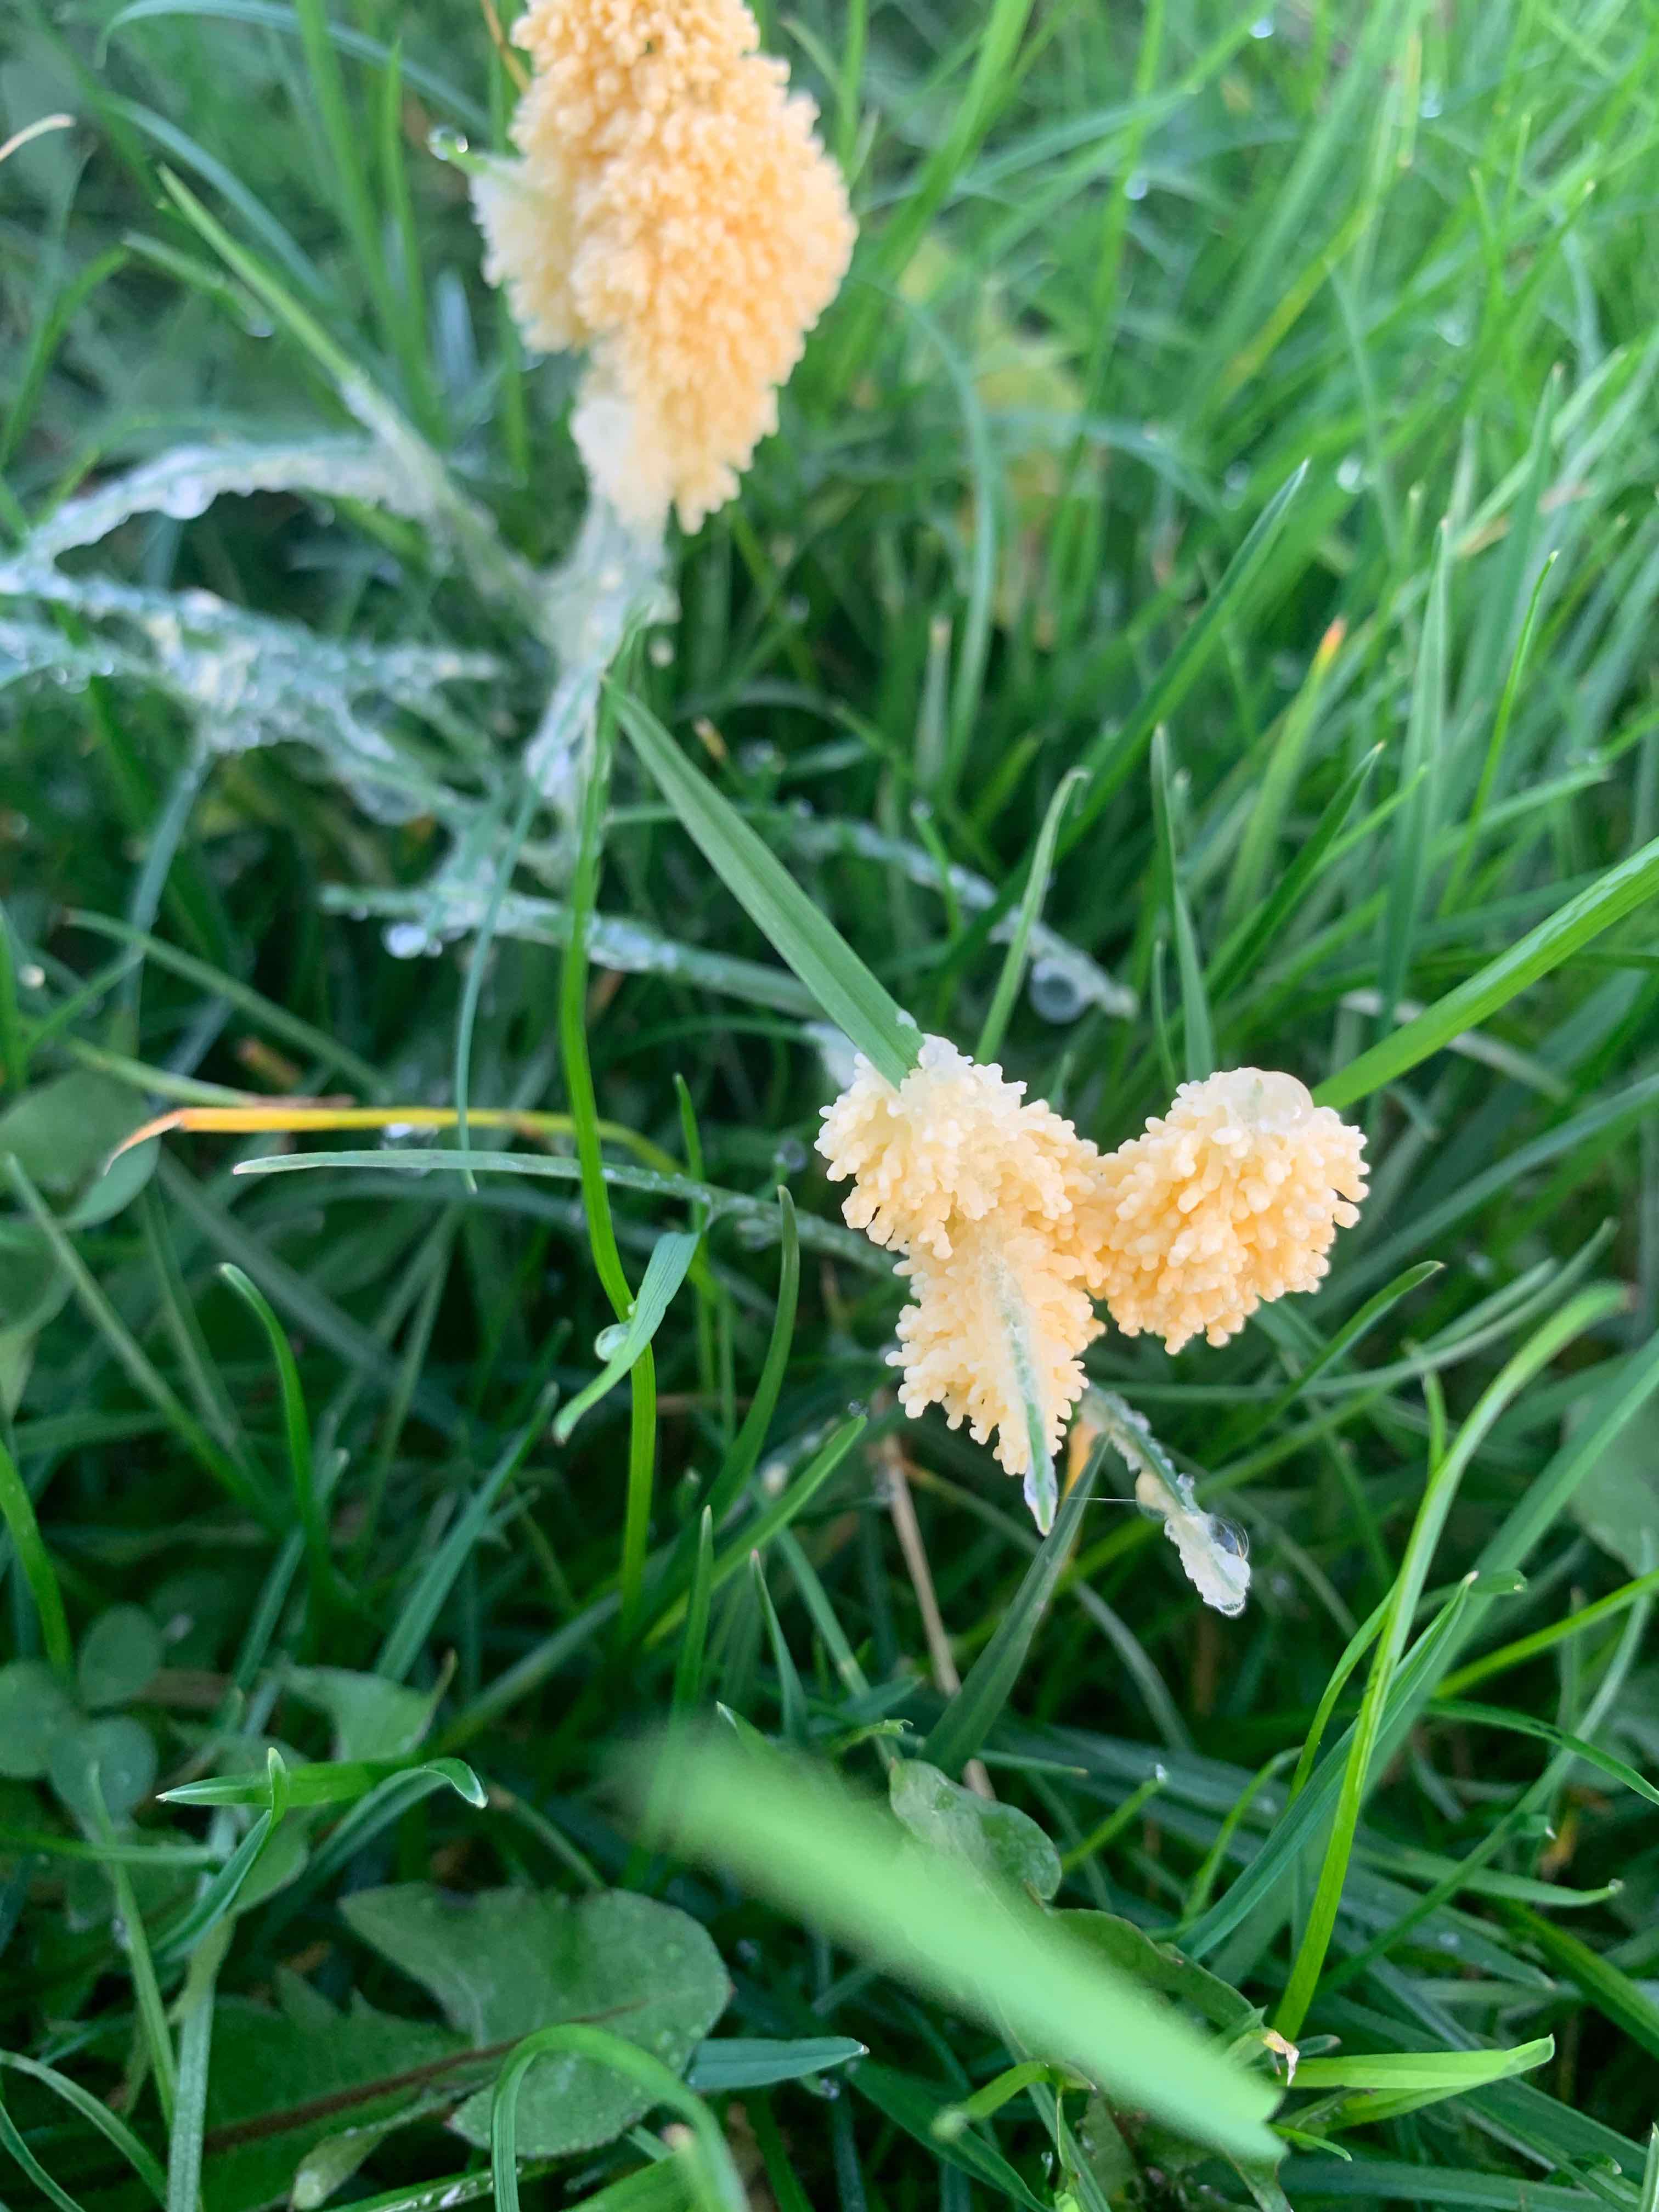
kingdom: Protozoa
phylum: Mycetozoa
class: Myxomycetes
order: Physarales
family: Physaraceae
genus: Didymium
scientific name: Didymium
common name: urteskum
